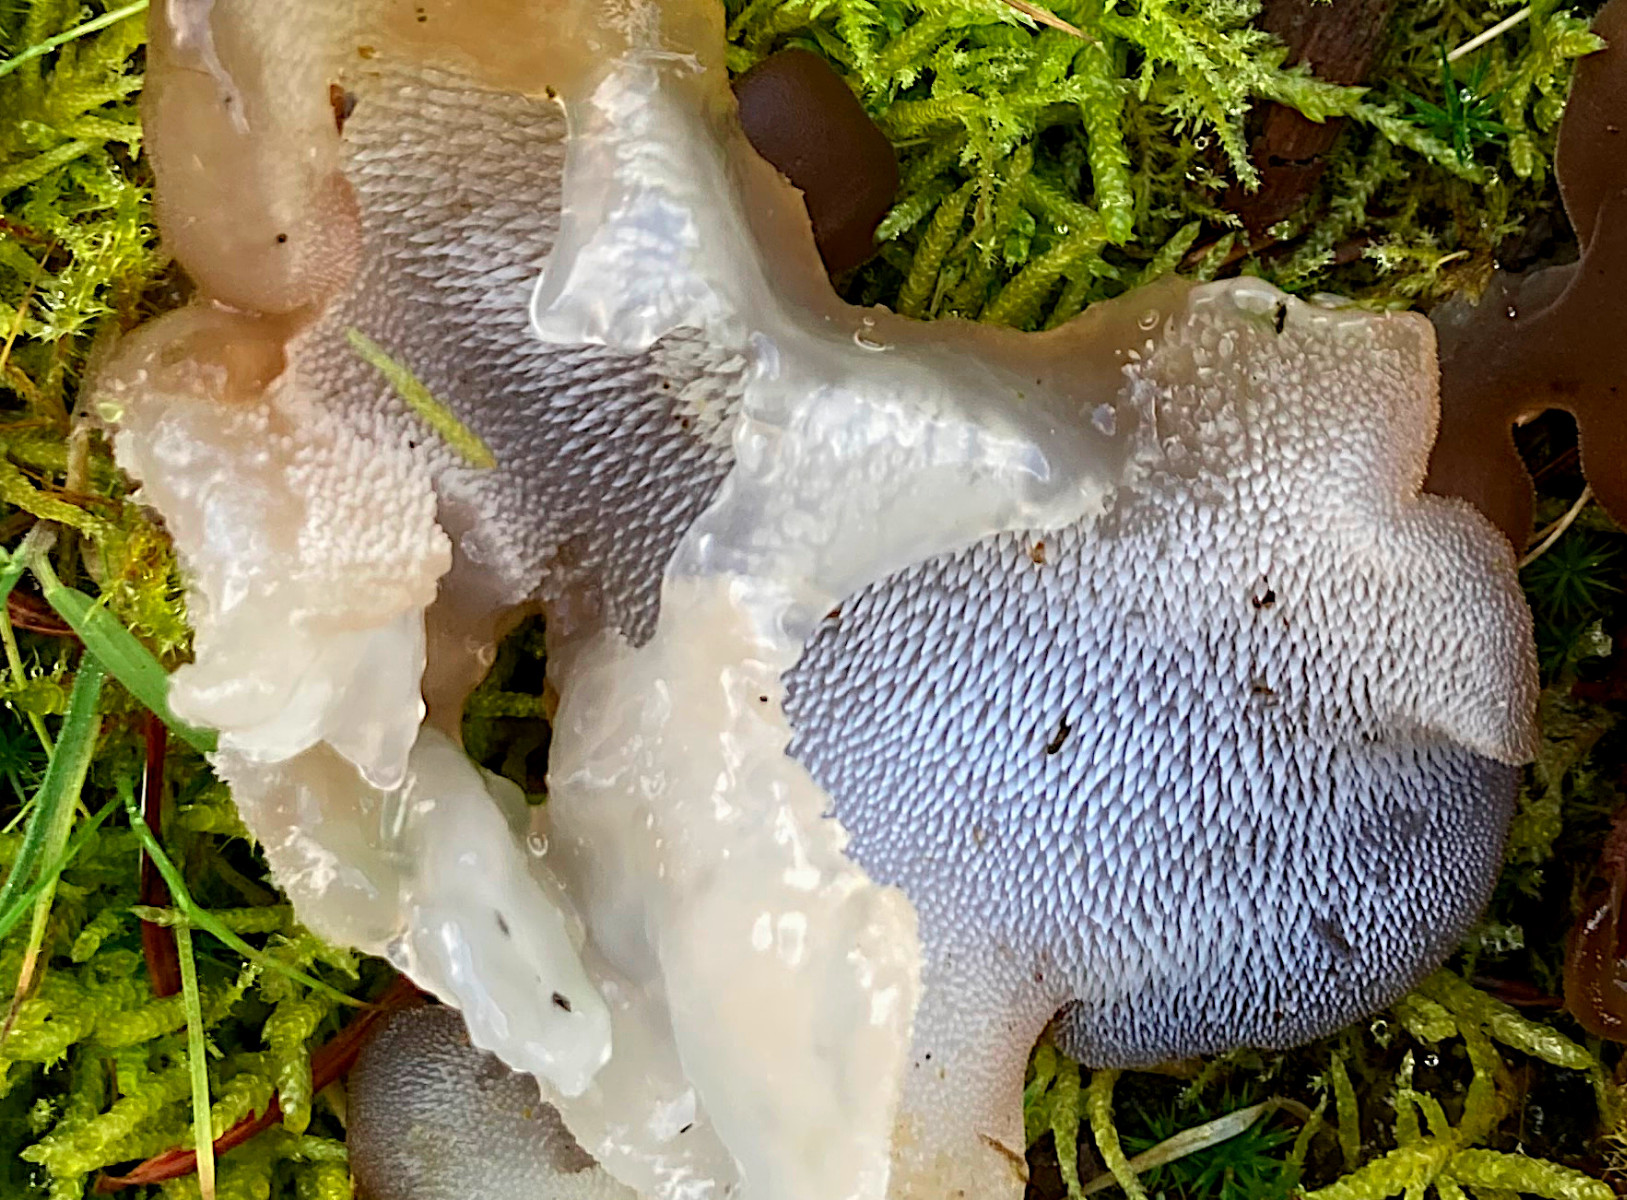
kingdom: Fungi
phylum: Basidiomycota
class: Agaricomycetes
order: Auriculariales
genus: Pseudohydnum
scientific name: Pseudohydnum gelatinosum
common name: bævretand
